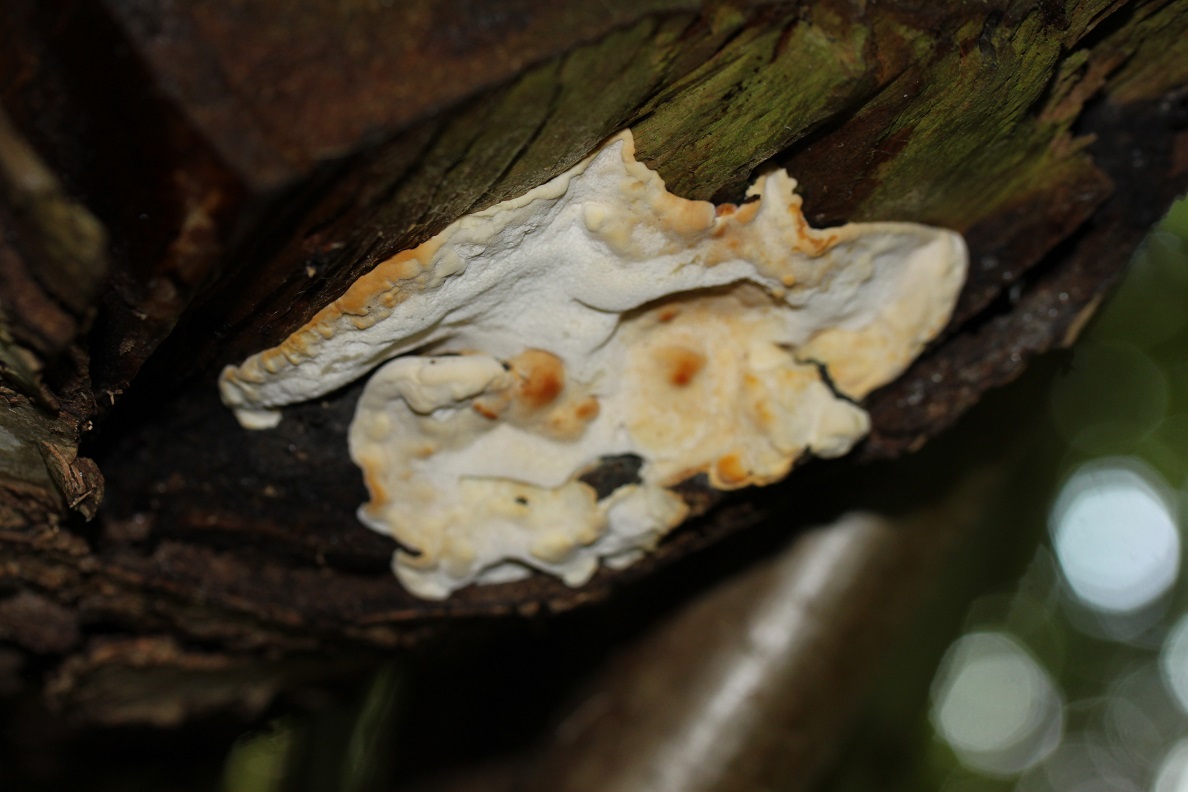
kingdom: Fungi
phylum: Basidiomycota
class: Agaricomycetes
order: Polyporales
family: Incrustoporiaceae
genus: Skeletocutis
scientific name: Skeletocutis nemoralis
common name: stor krystalporesvamp
